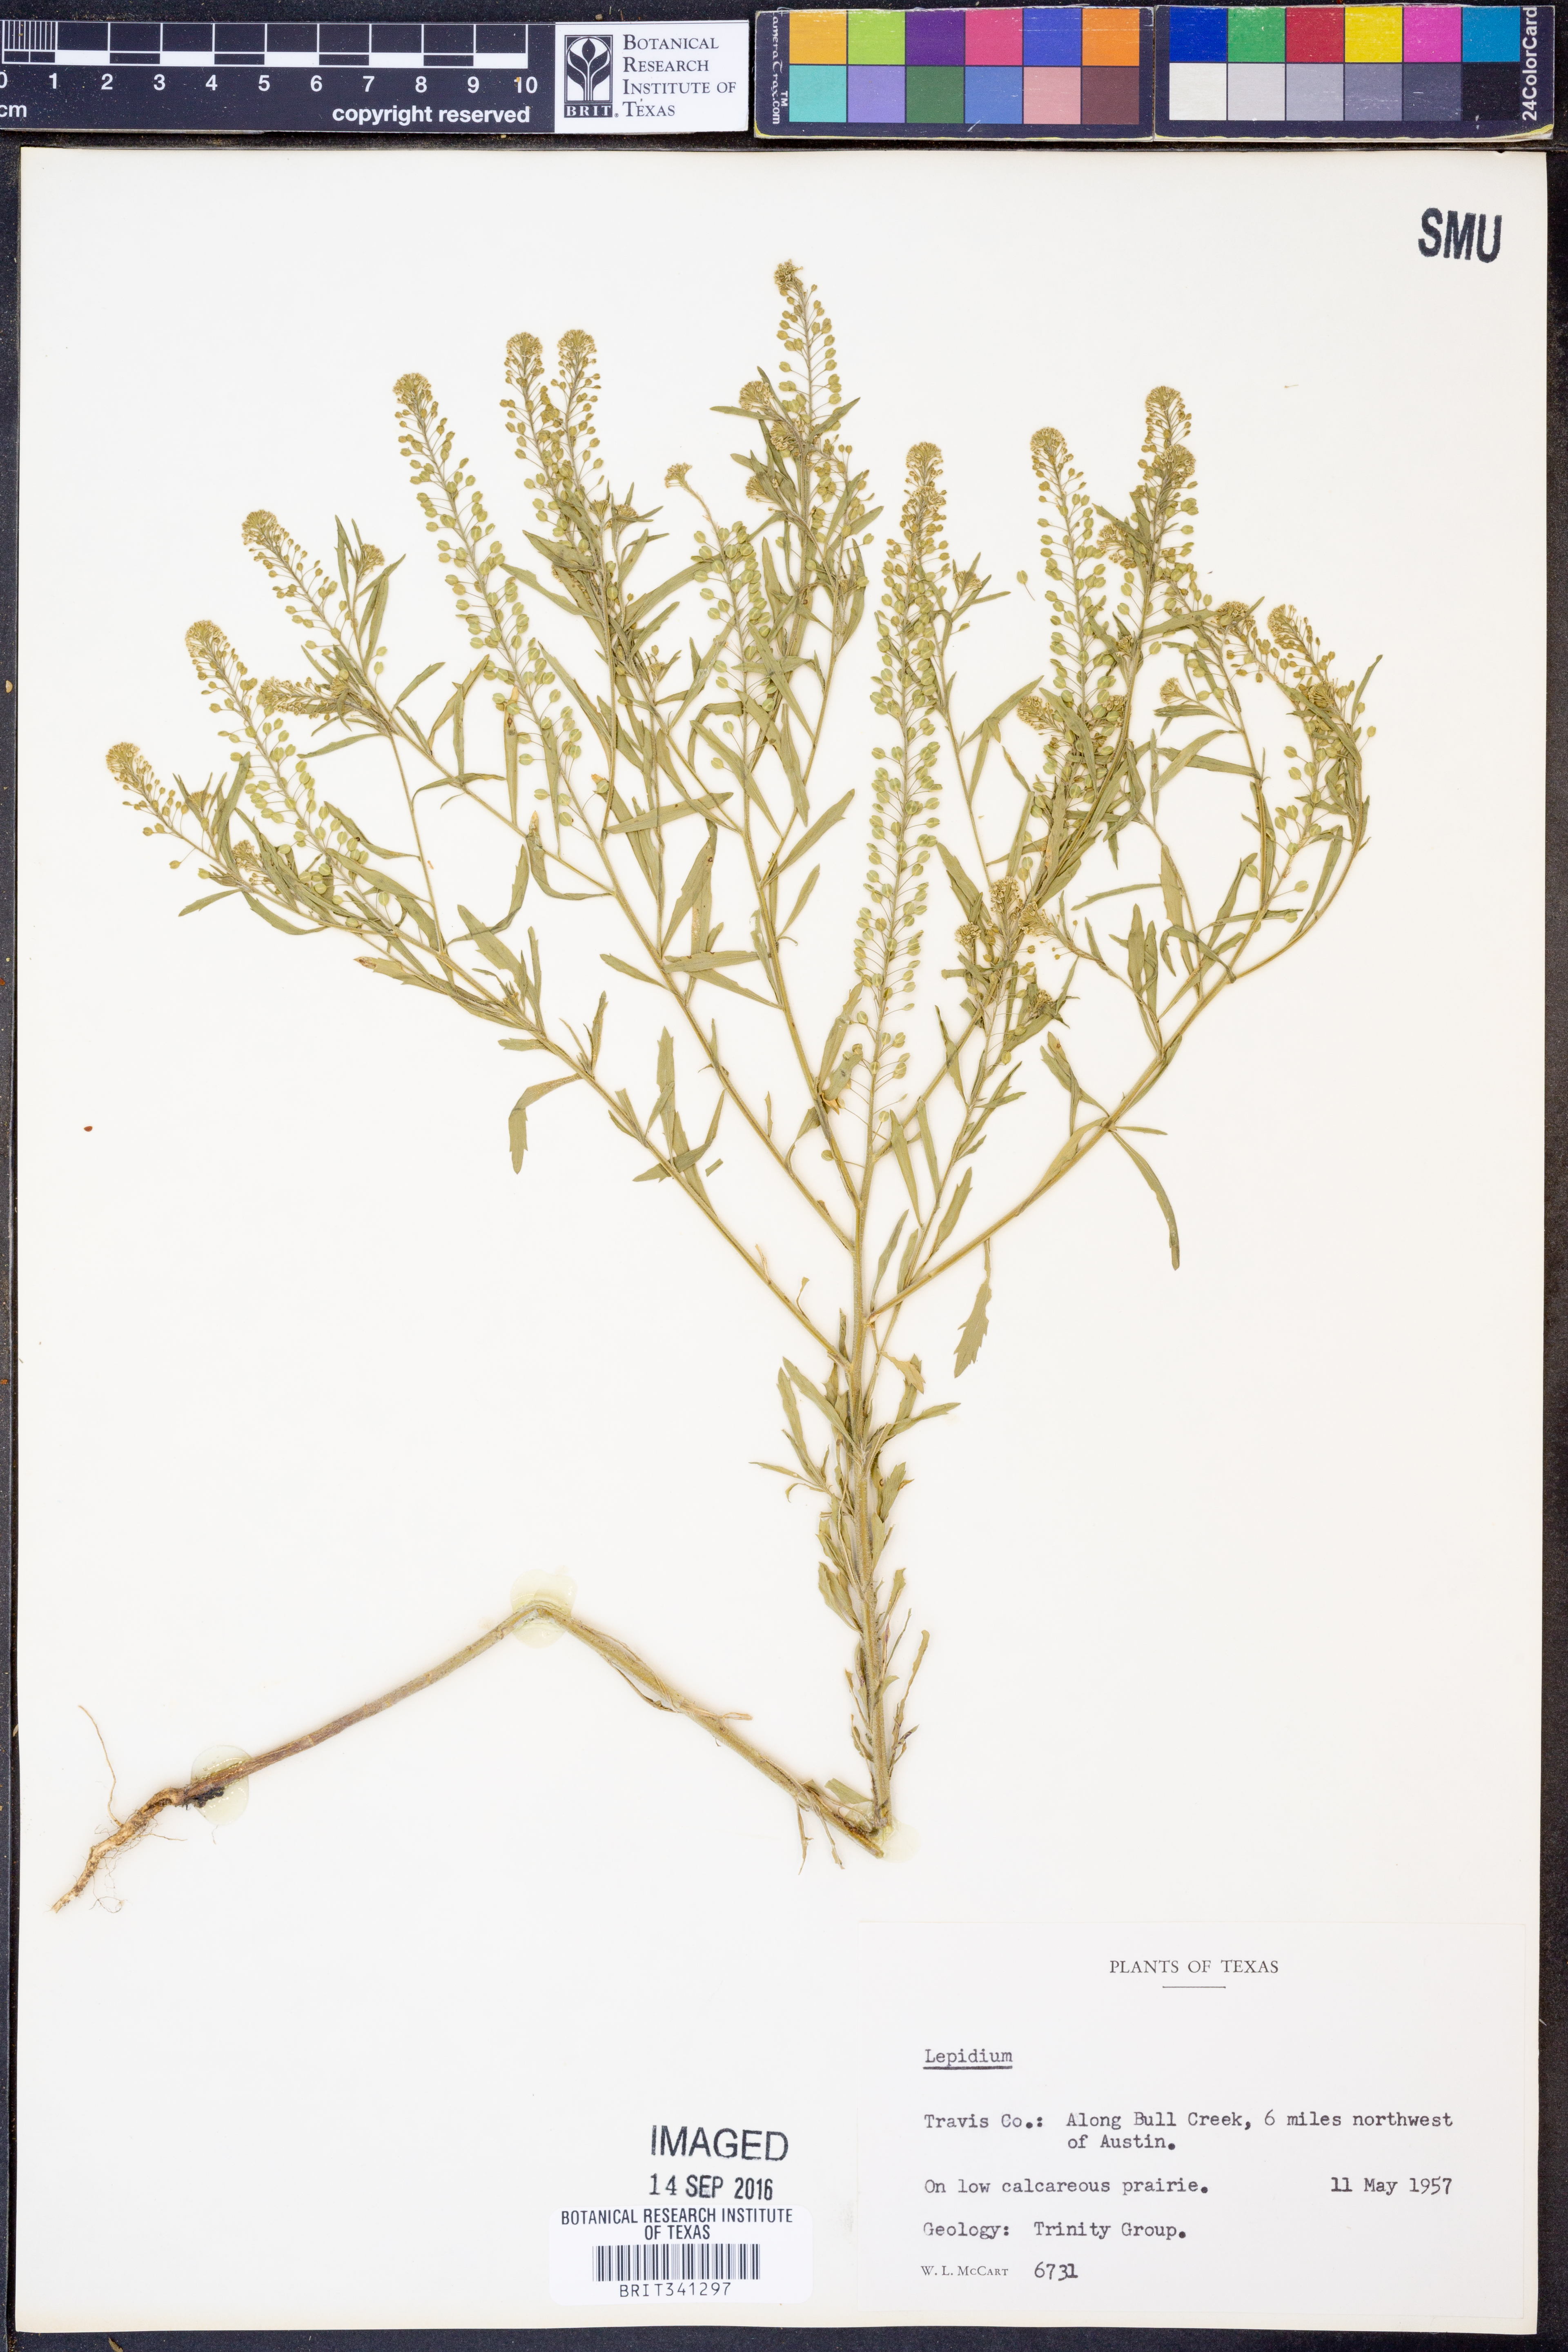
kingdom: Plantae
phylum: Tracheophyta
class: Magnoliopsida
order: Brassicales
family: Brassicaceae
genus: Lepidium
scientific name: Lepidium
